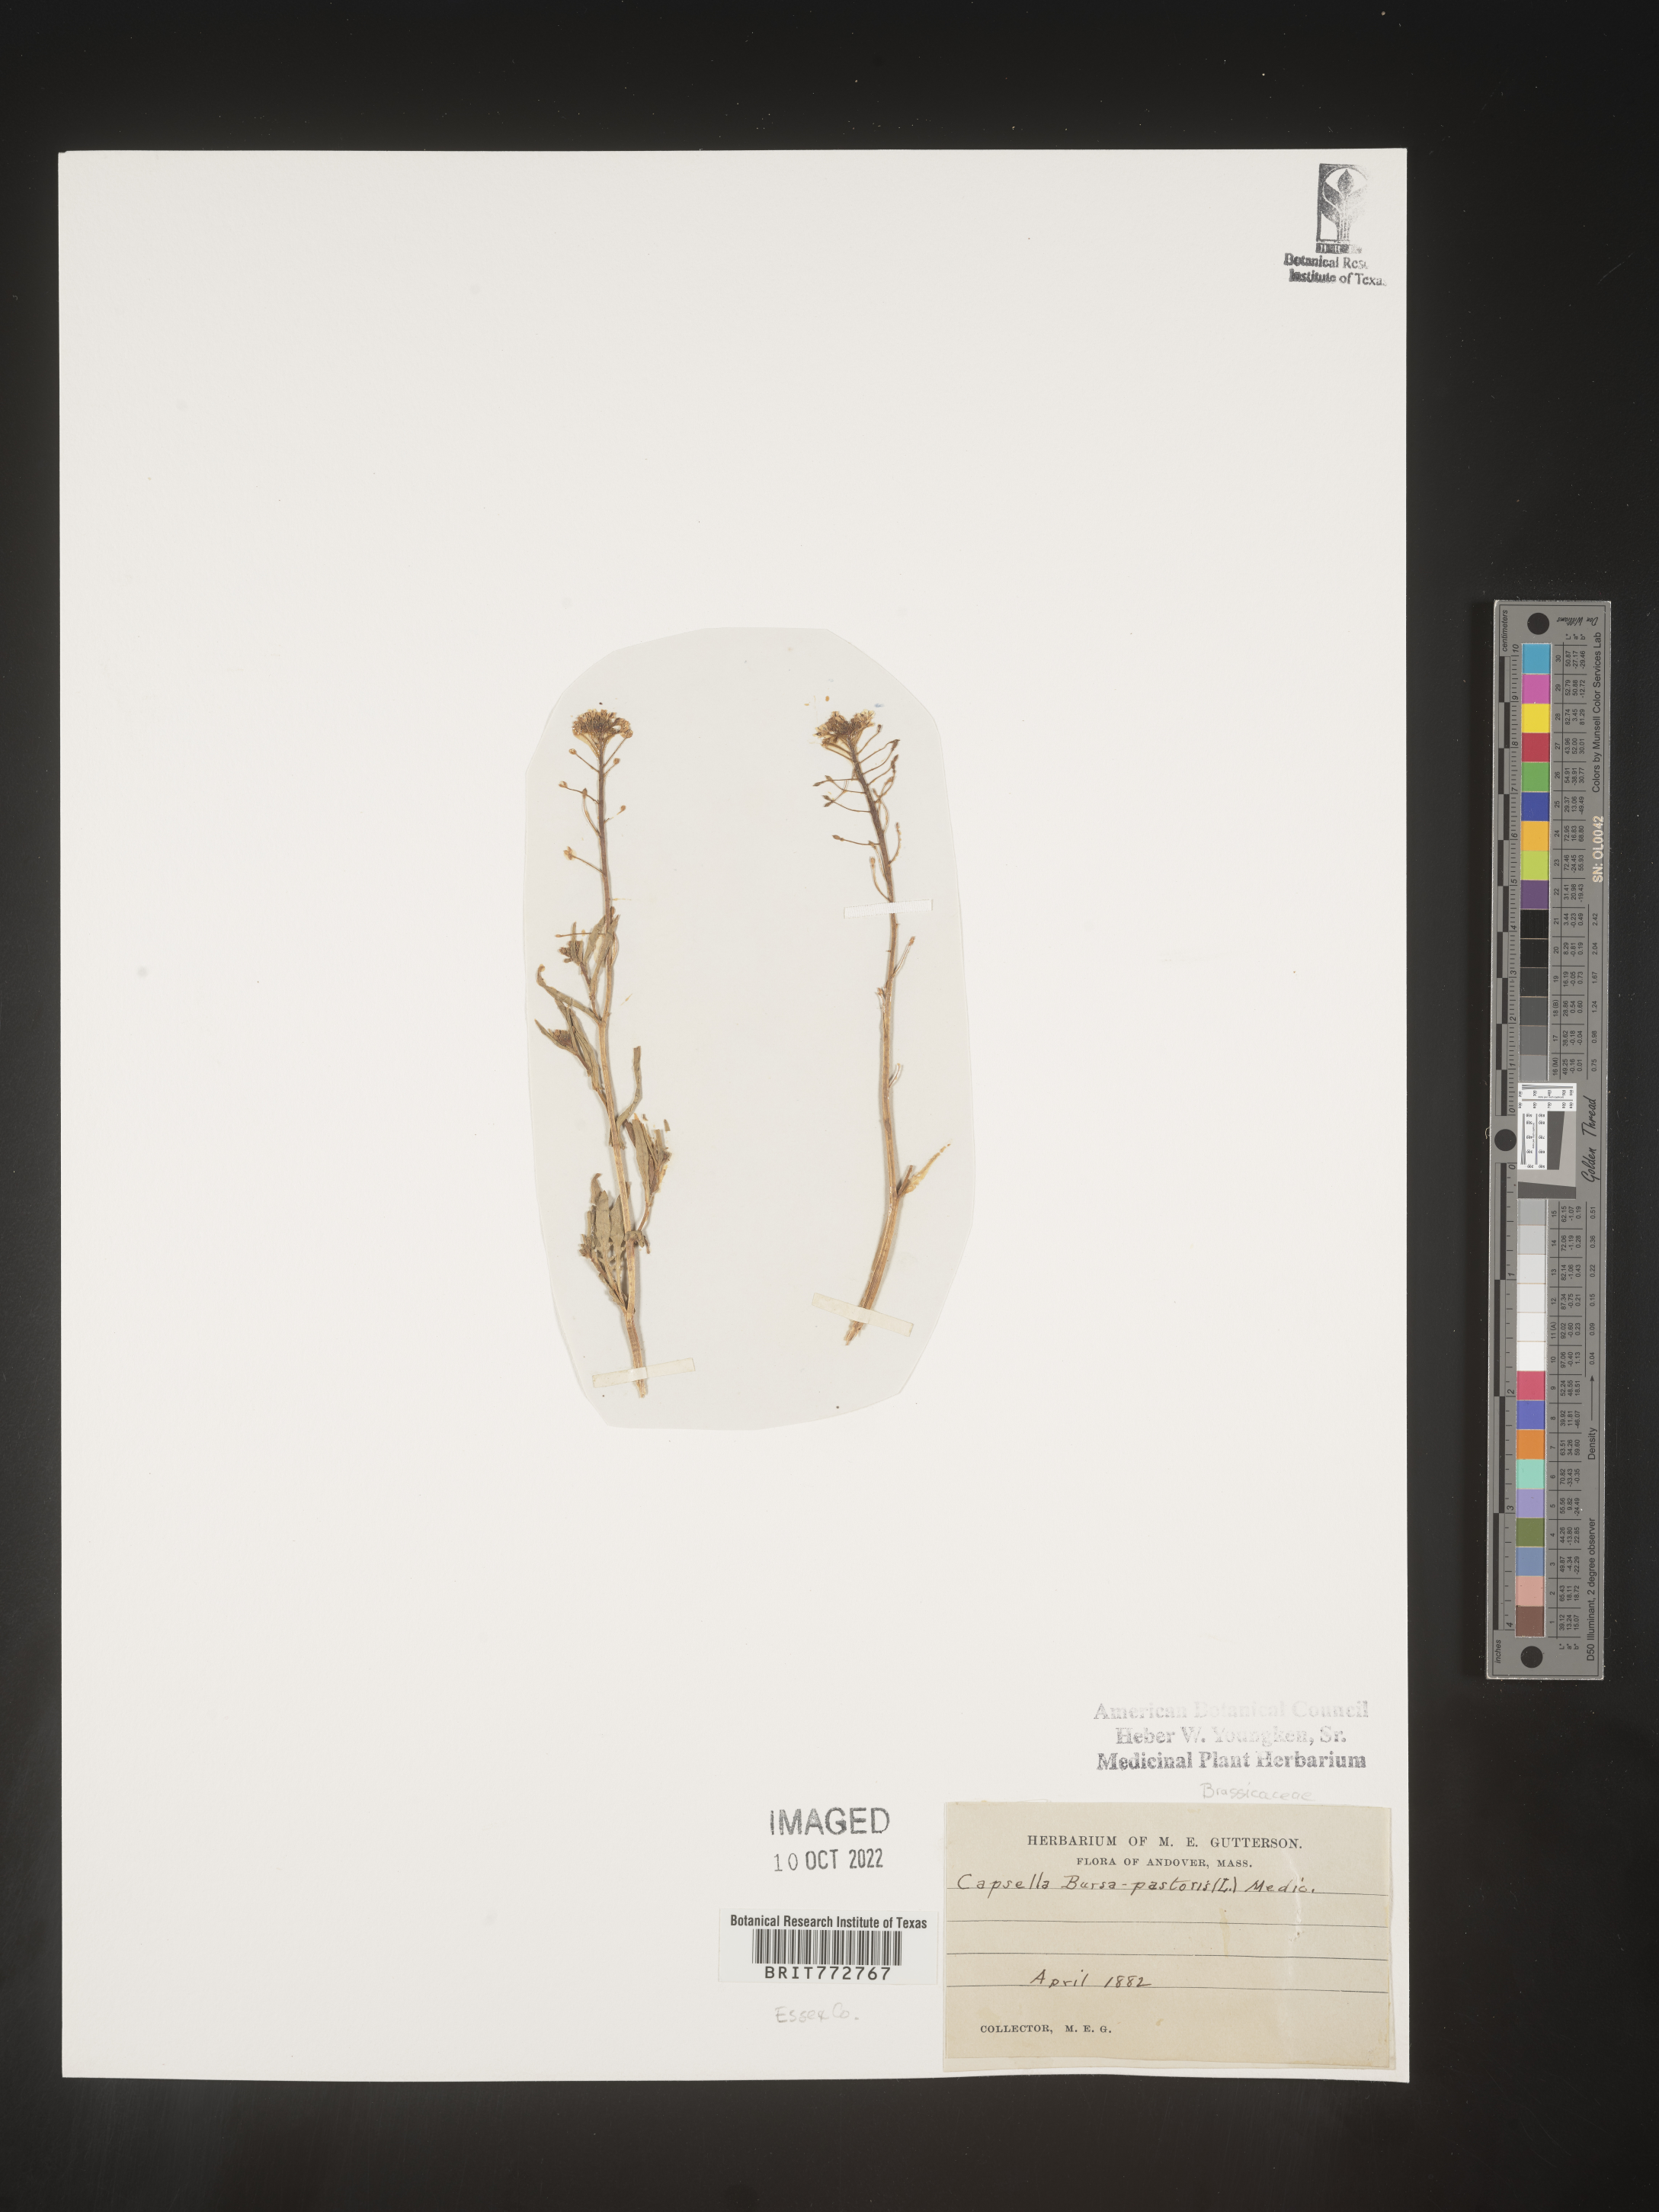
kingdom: Plantae
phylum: Tracheophyta
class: Magnoliopsida
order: Brassicales
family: Brassicaceae
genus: Capsella
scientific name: Capsella bursa-pastoris
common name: Shepherd's purse
